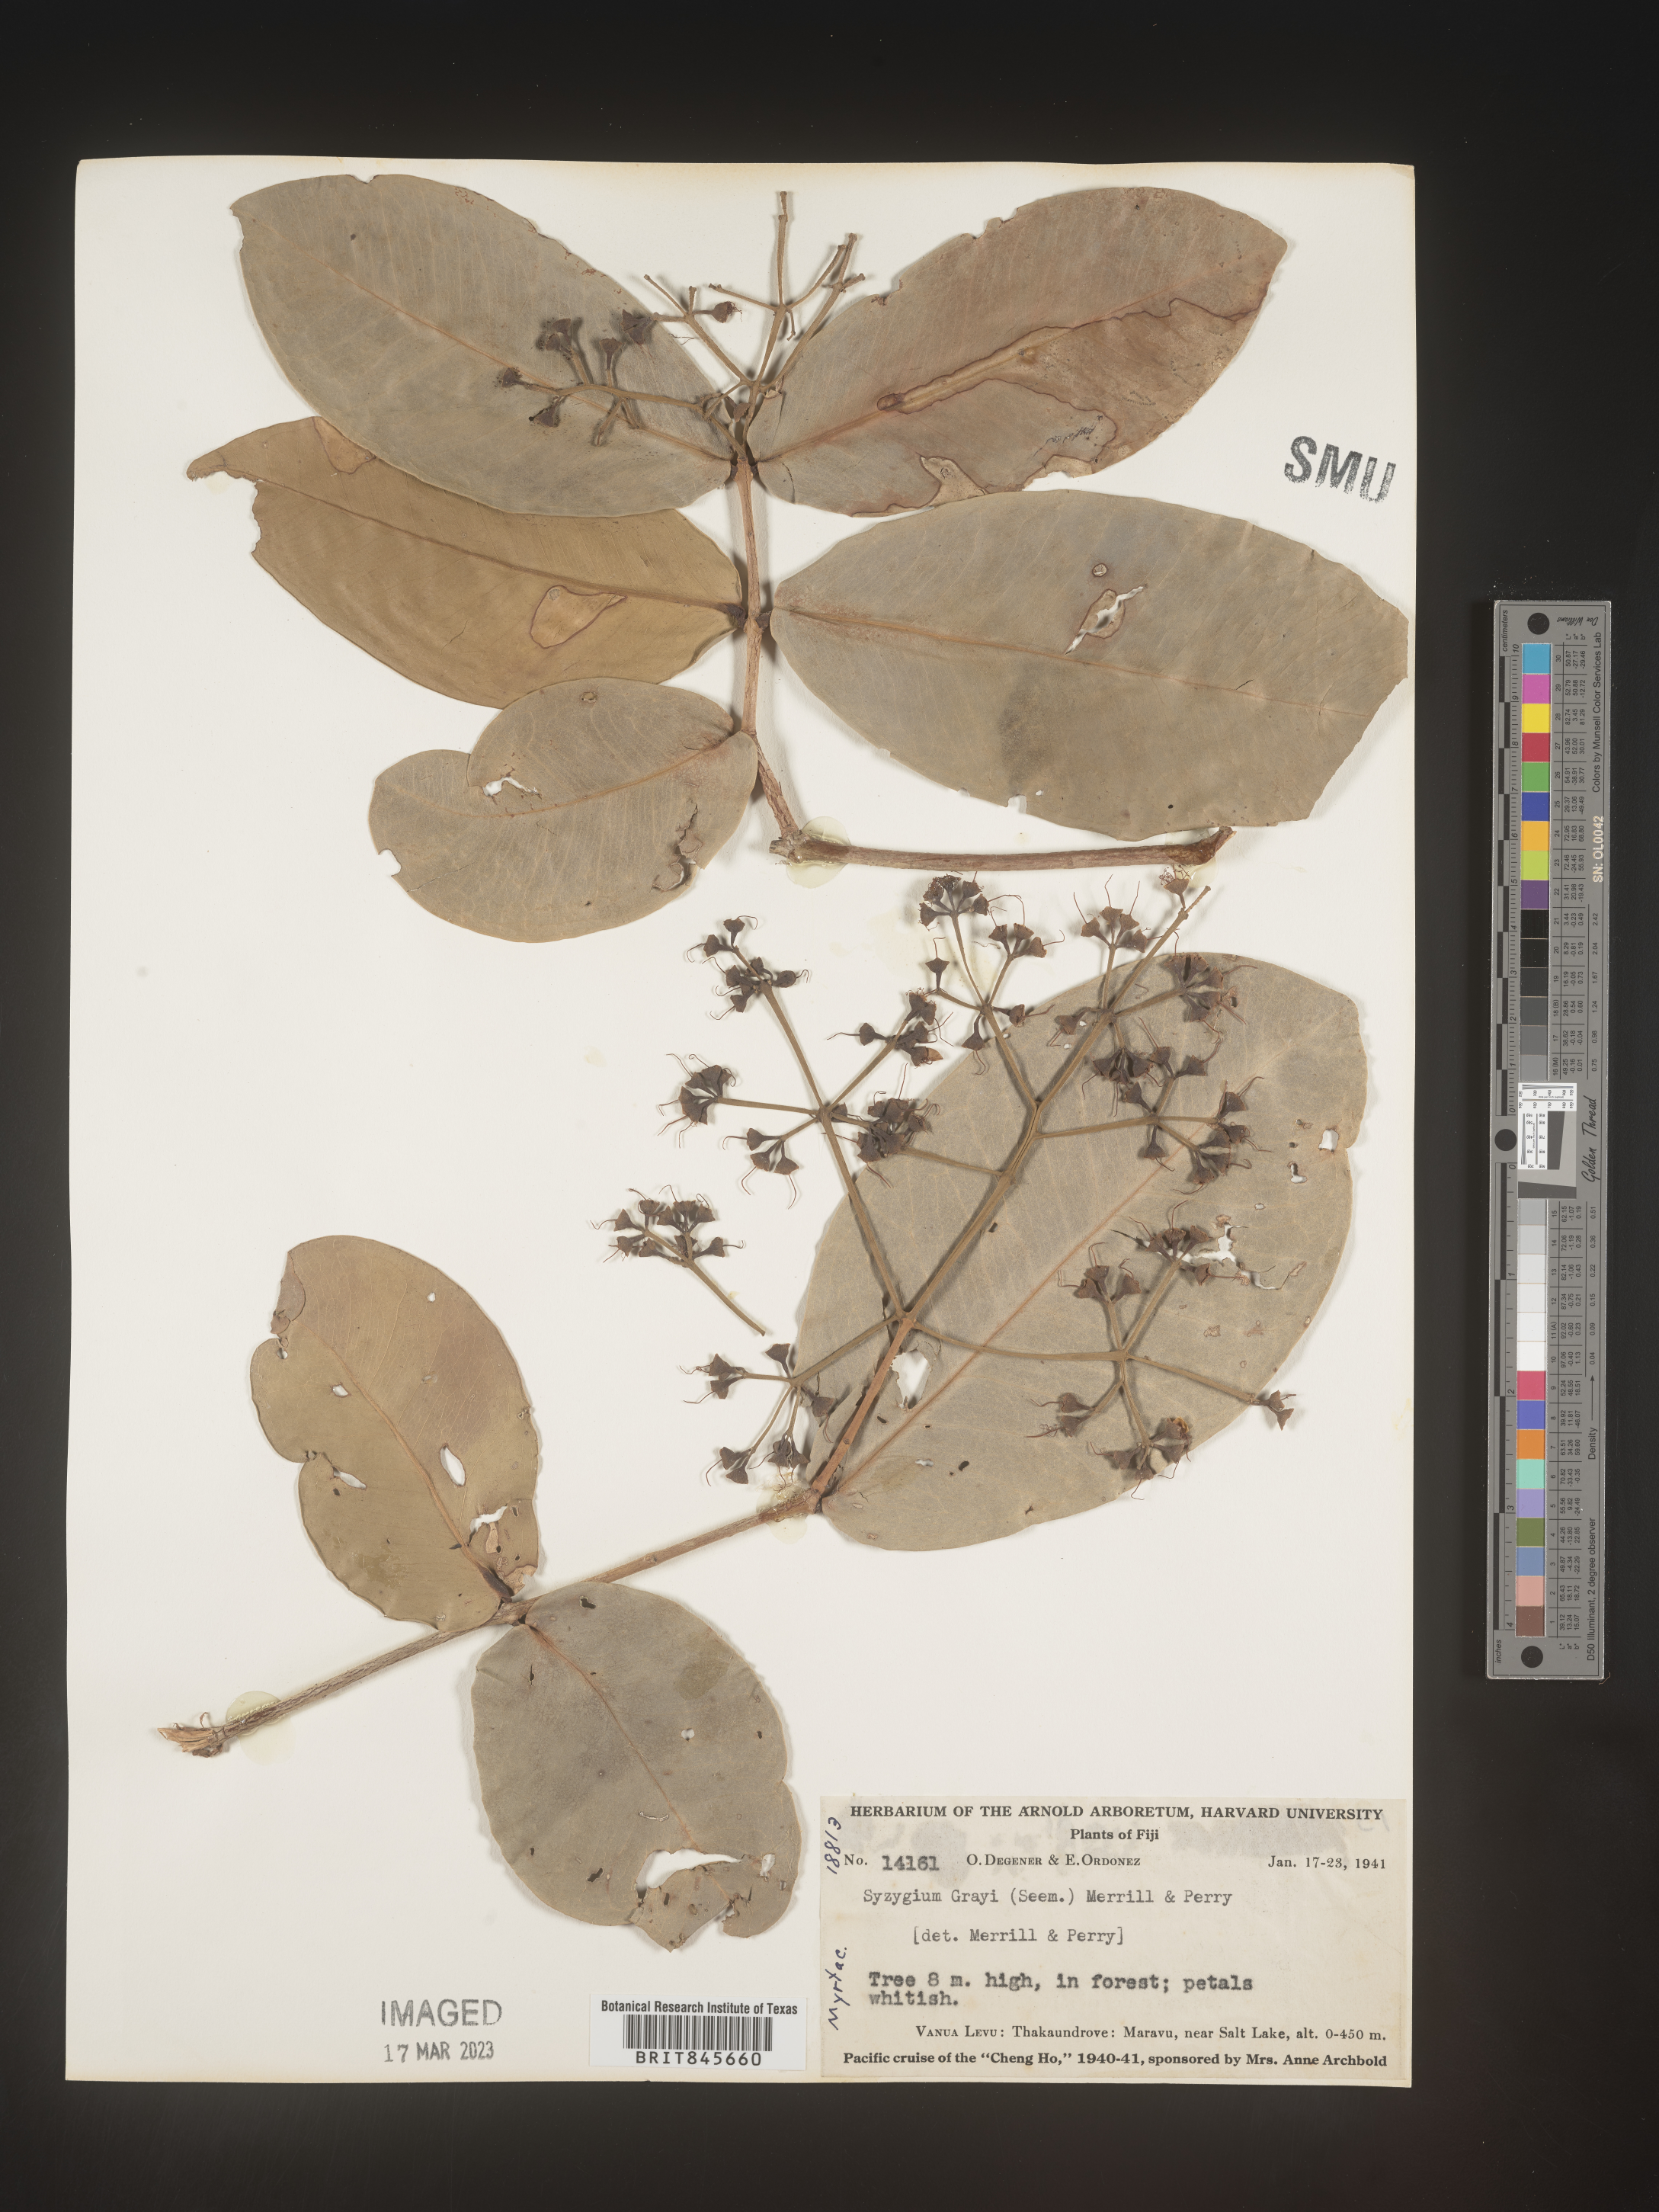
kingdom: Plantae
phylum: Tracheophyta
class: Magnoliopsida
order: Myrtales
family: Myrtaceae
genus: Syzygium
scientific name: Syzygium
